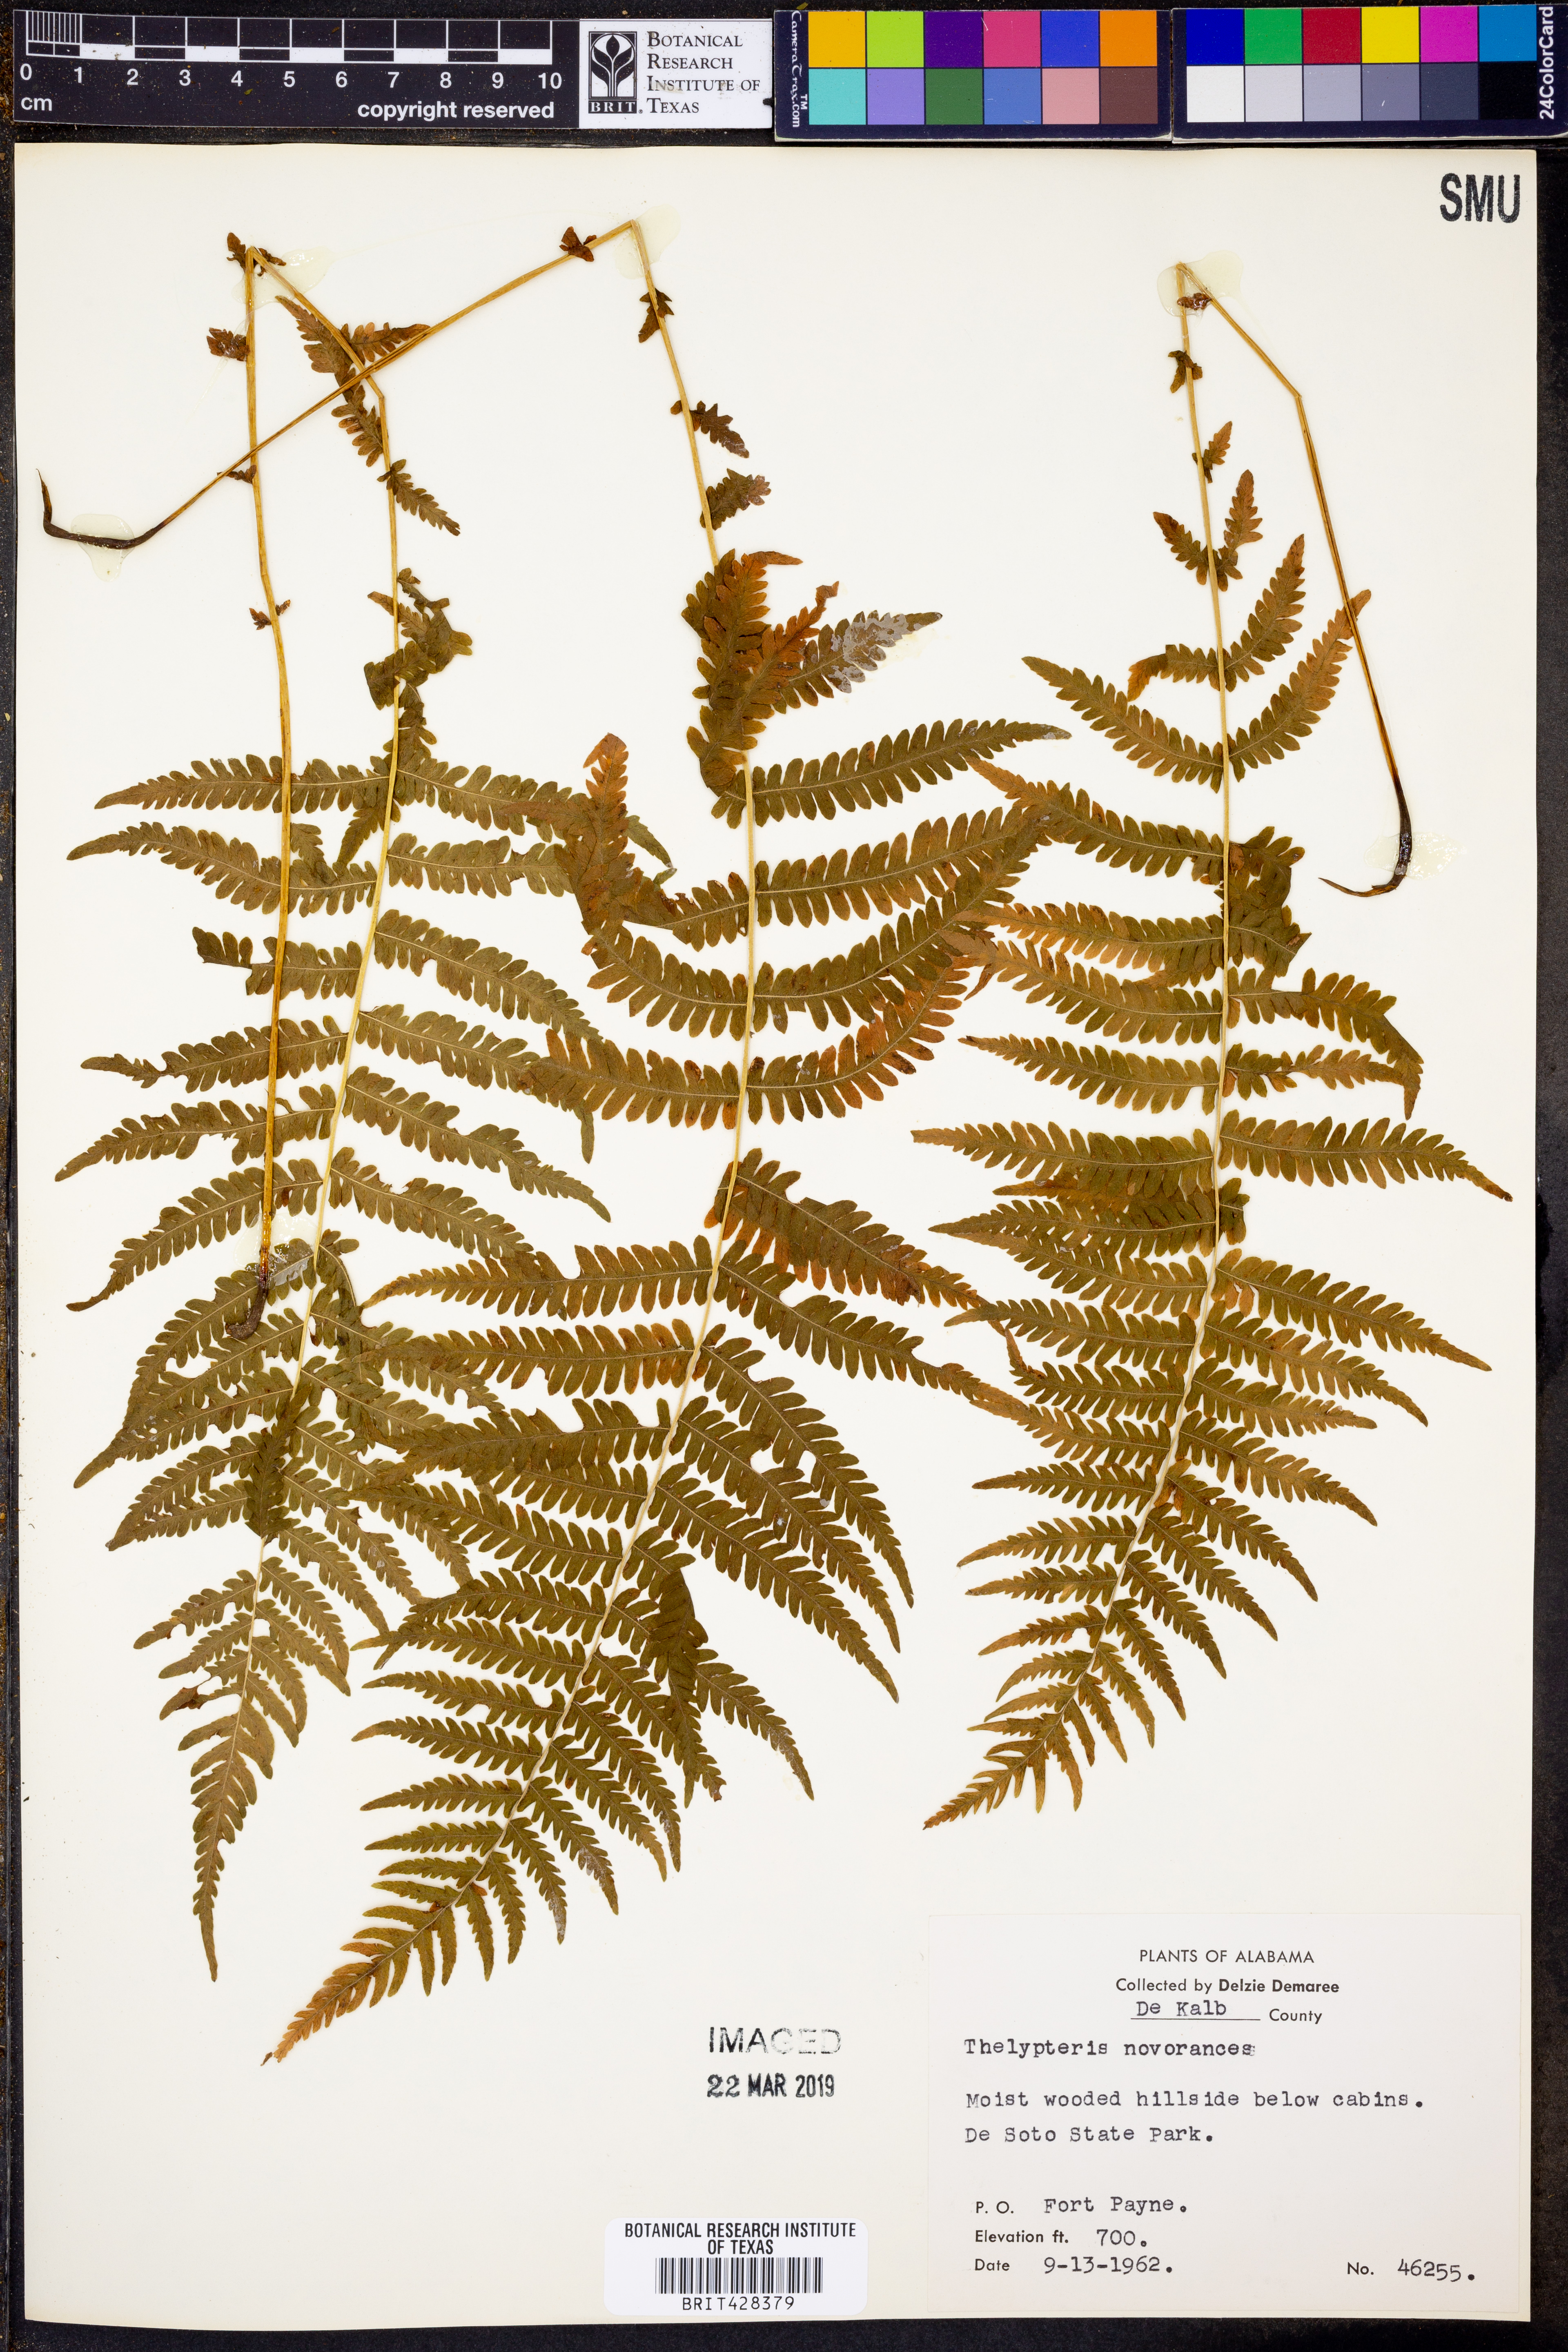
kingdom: Plantae
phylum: Tracheophyta
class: Polypodiopsida
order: Polypodiales
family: Thelypteridaceae
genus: Amauropelta
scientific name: Amauropelta noveboracensis
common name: New york fern
